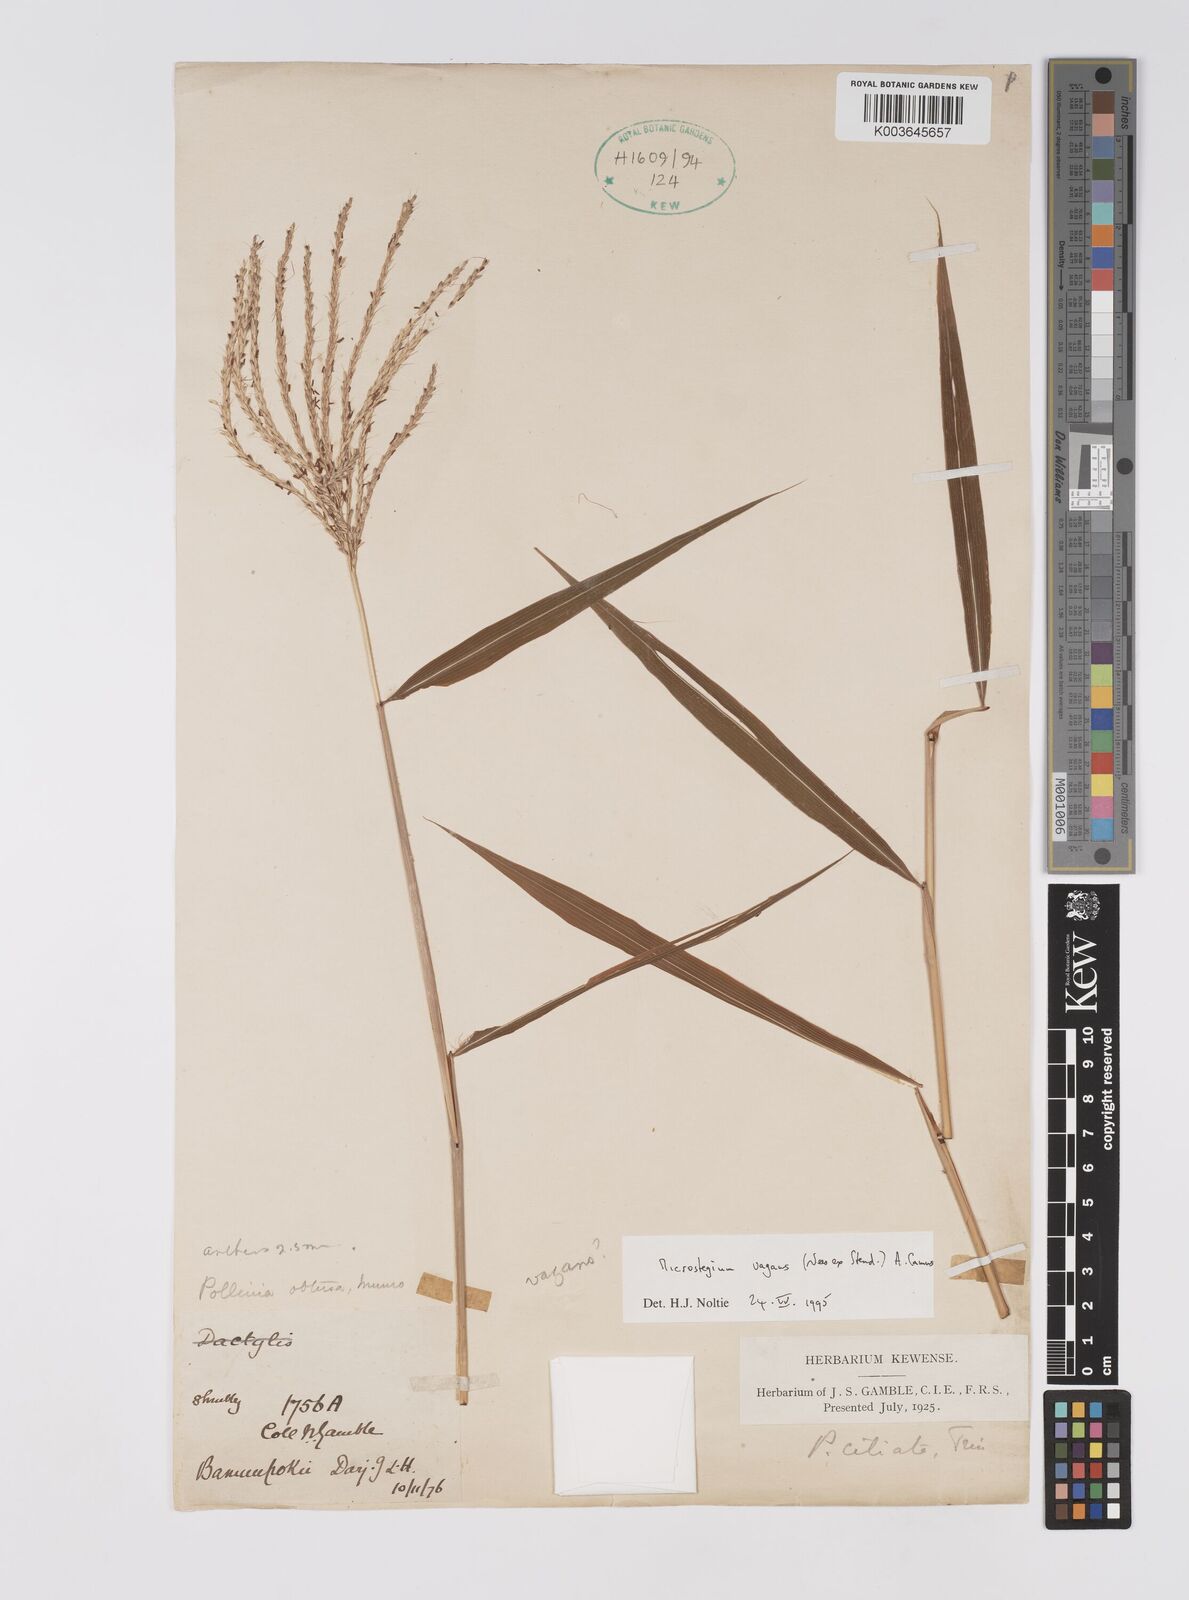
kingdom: Plantae
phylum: Tracheophyta
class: Liliopsida
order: Poales
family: Poaceae
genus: Microstegium
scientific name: Microstegium fasciculatum
